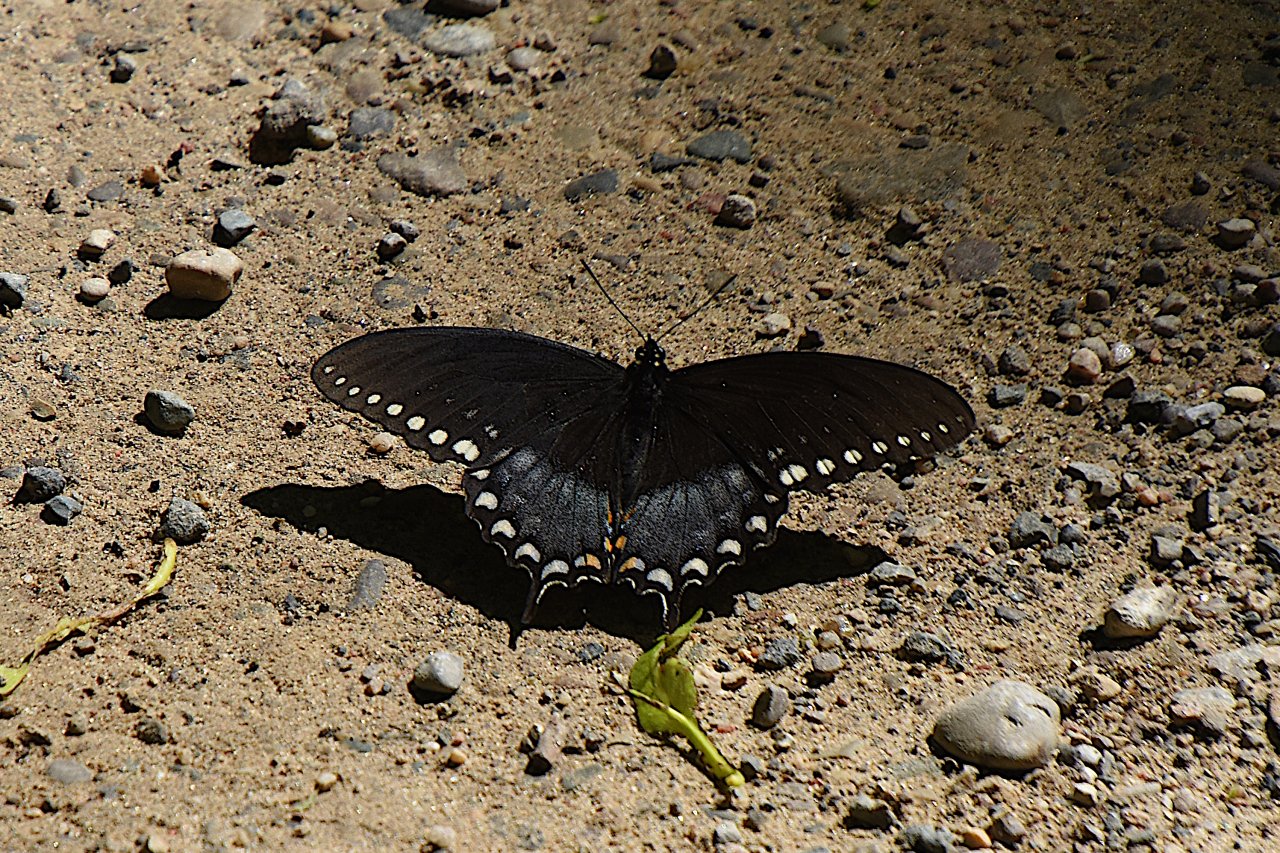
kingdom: Animalia
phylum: Arthropoda
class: Insecta
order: Lepidoptera
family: Papilionidae
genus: Pterourus
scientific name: Pterourus troilus
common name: Spicebush Swallowtail
